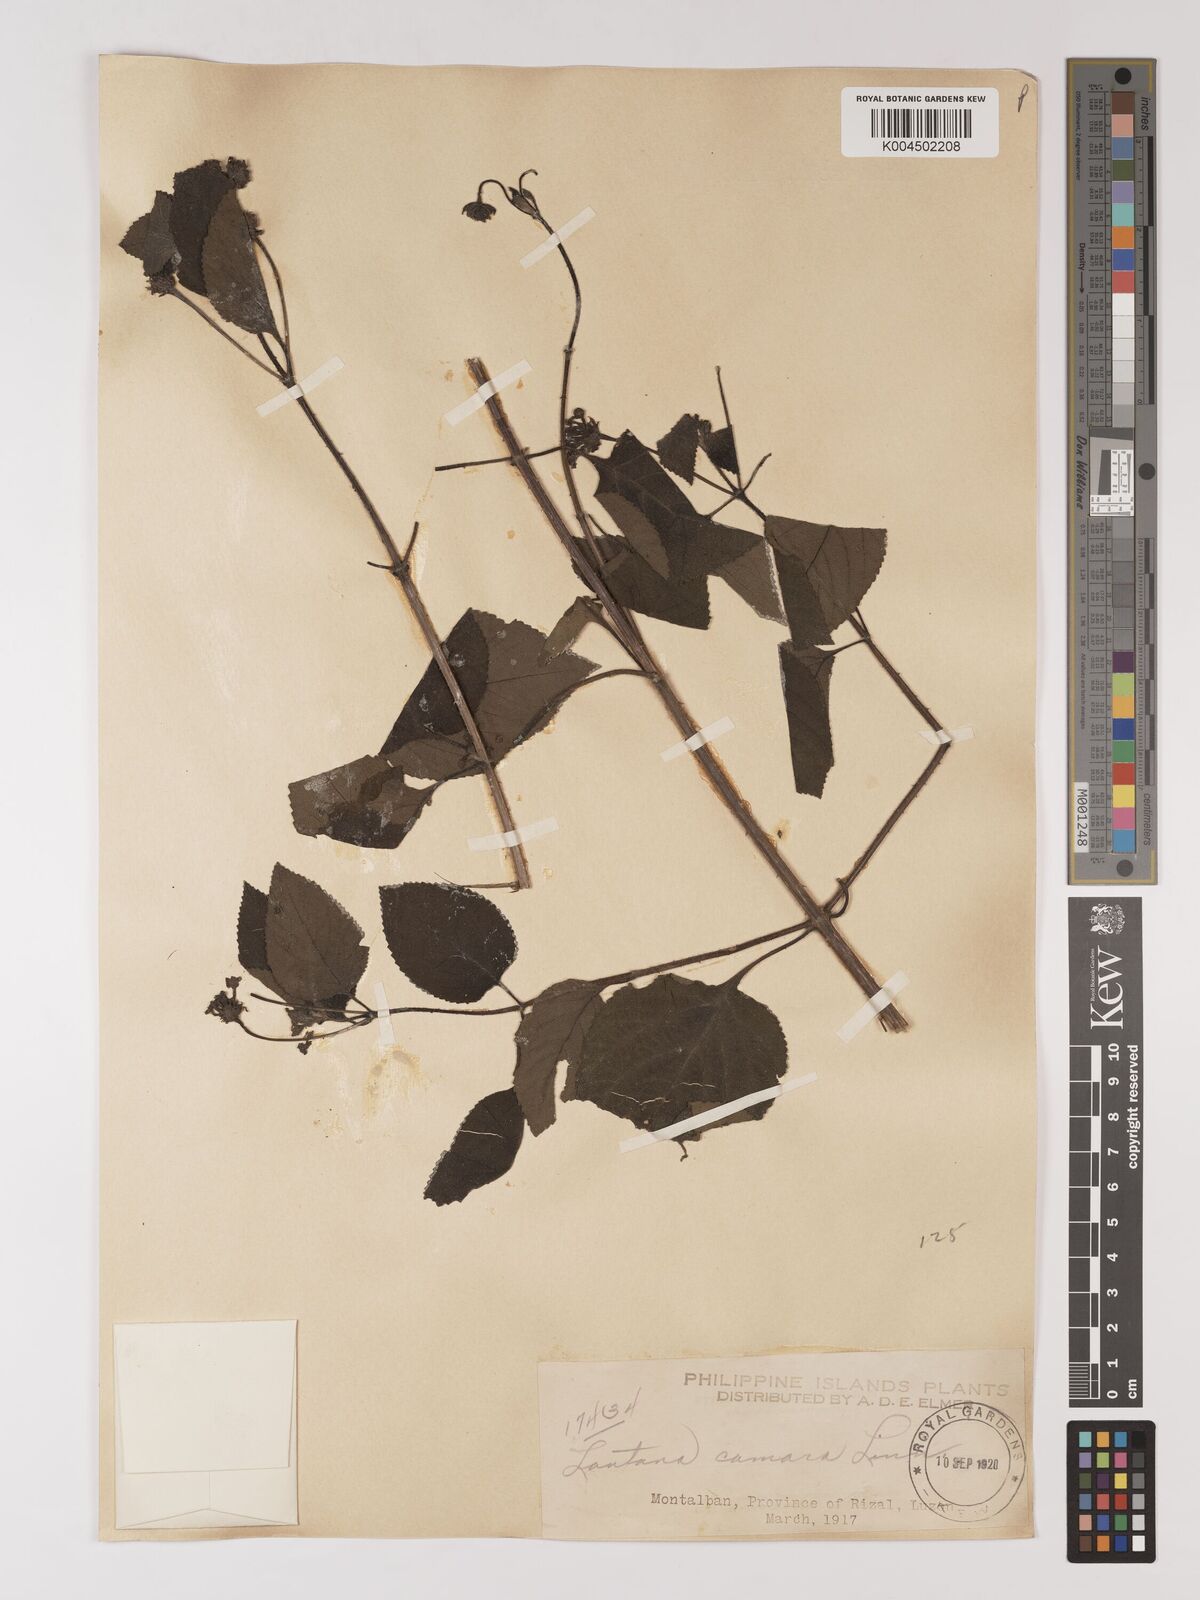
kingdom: Plantae
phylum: Tracheophyta
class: Magnoliopsida
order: Lamiales
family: Verbenaceae
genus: Lantana
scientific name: Lantana
